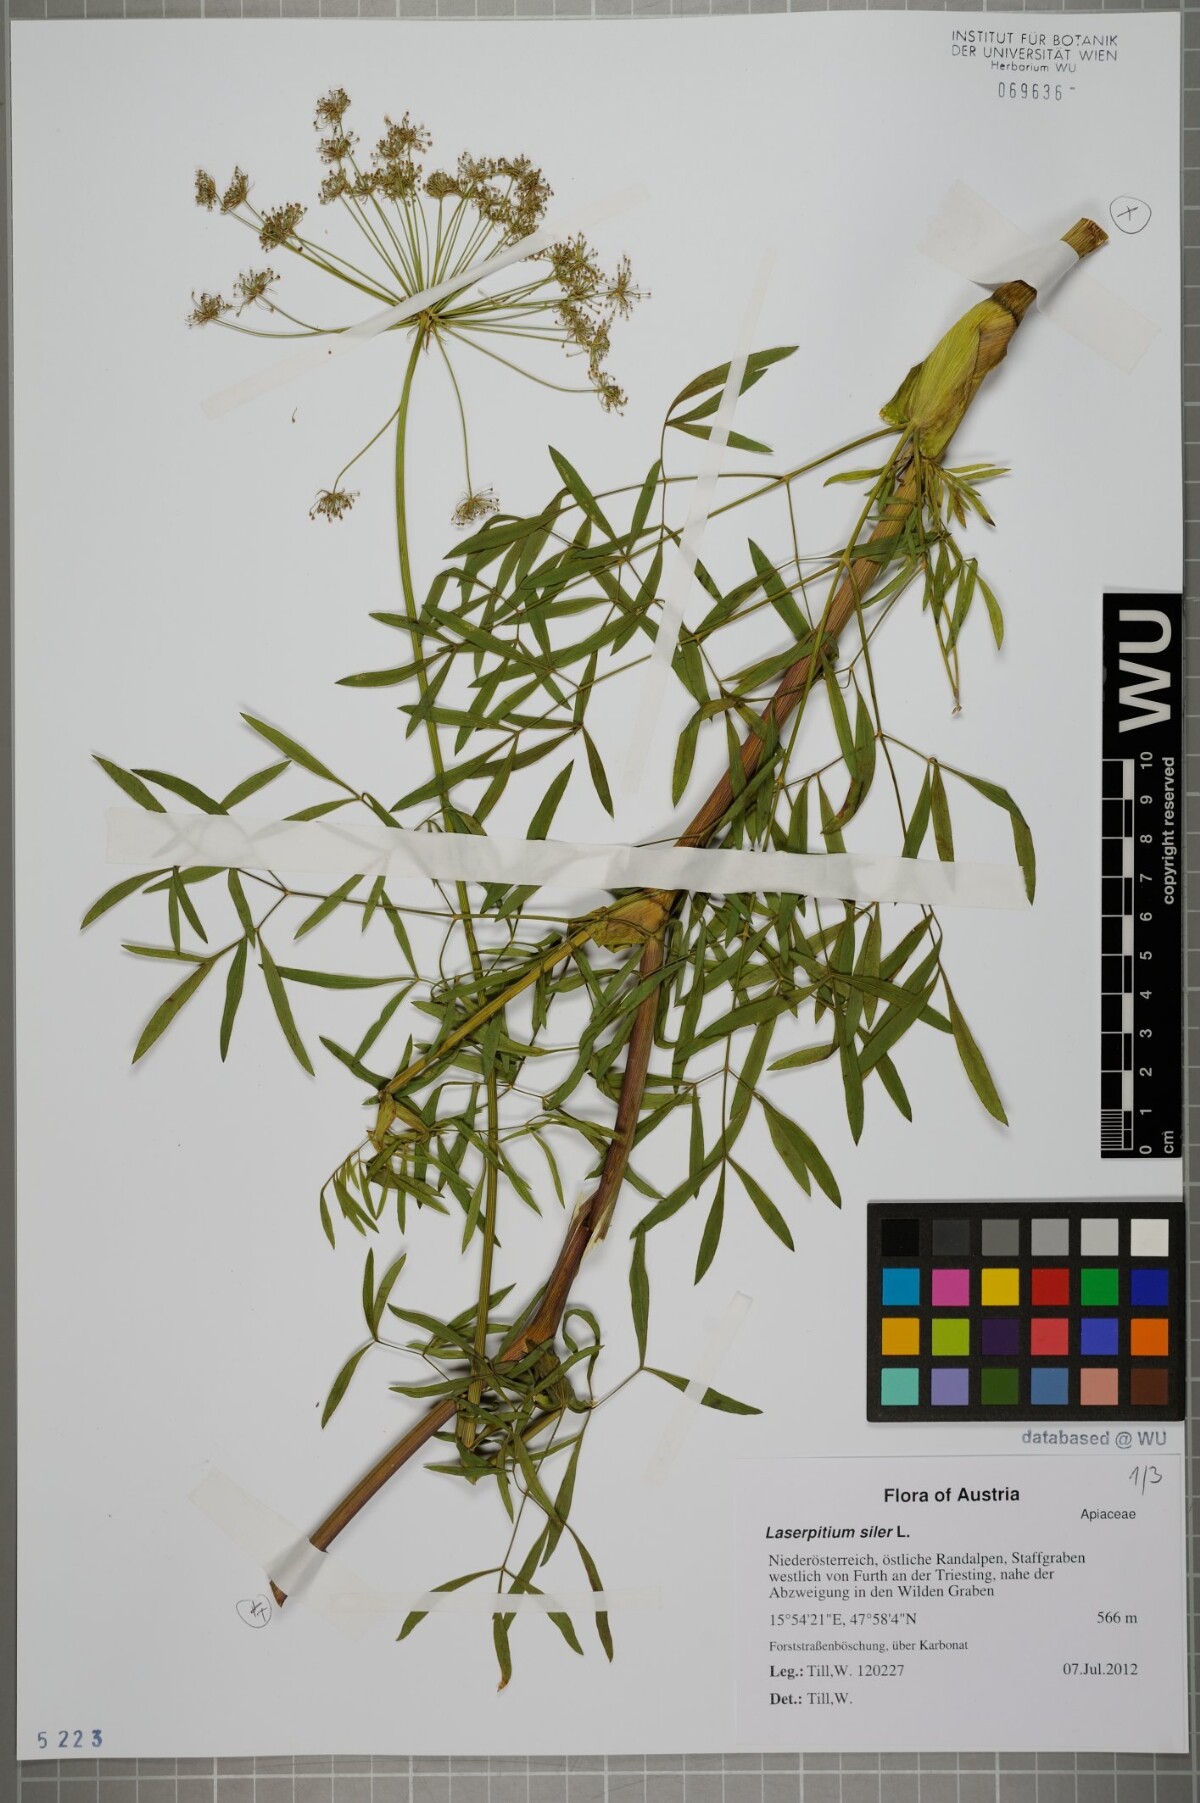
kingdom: Plantae
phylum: Tracheophyta
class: Magnoliopsida
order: Apiales
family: Apiaceae
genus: Siler
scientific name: Siler montanum
